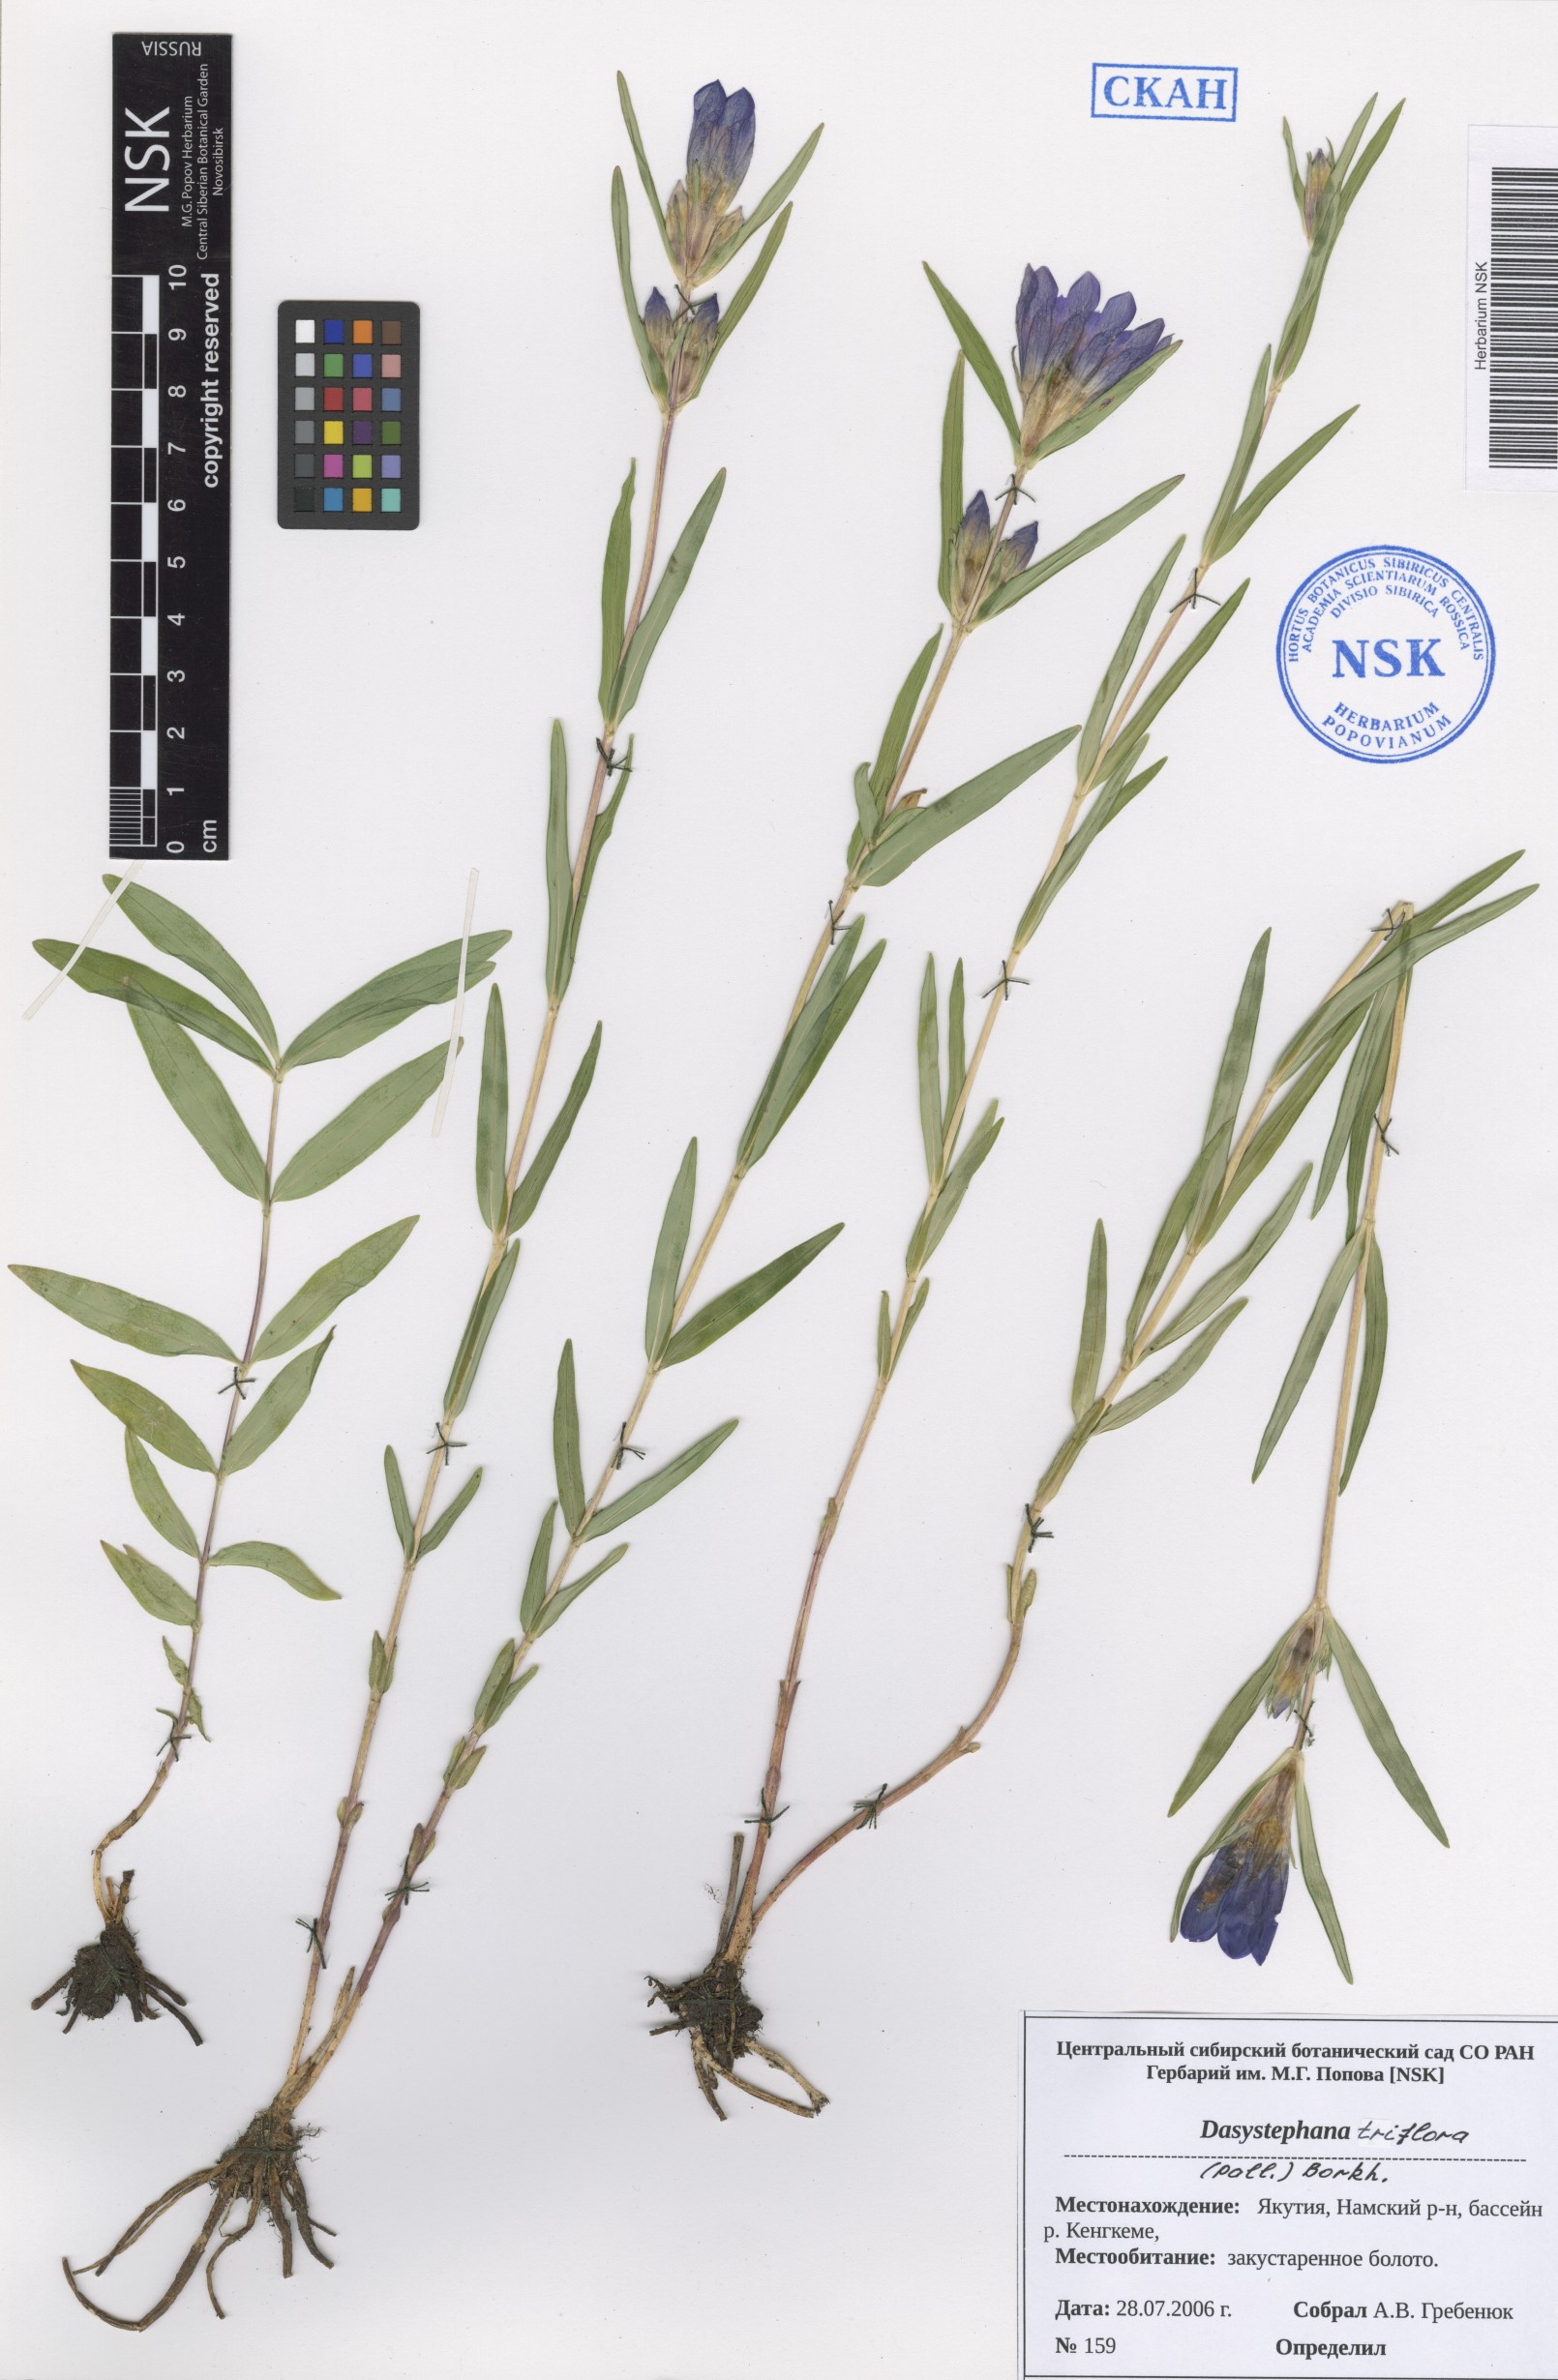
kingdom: Plantae
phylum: Tracheophyta
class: Magnoliopsida
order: Gentianales
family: Gentianaceae
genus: Gentiana
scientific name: Gentiana triflora
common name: Three-flower gentian
